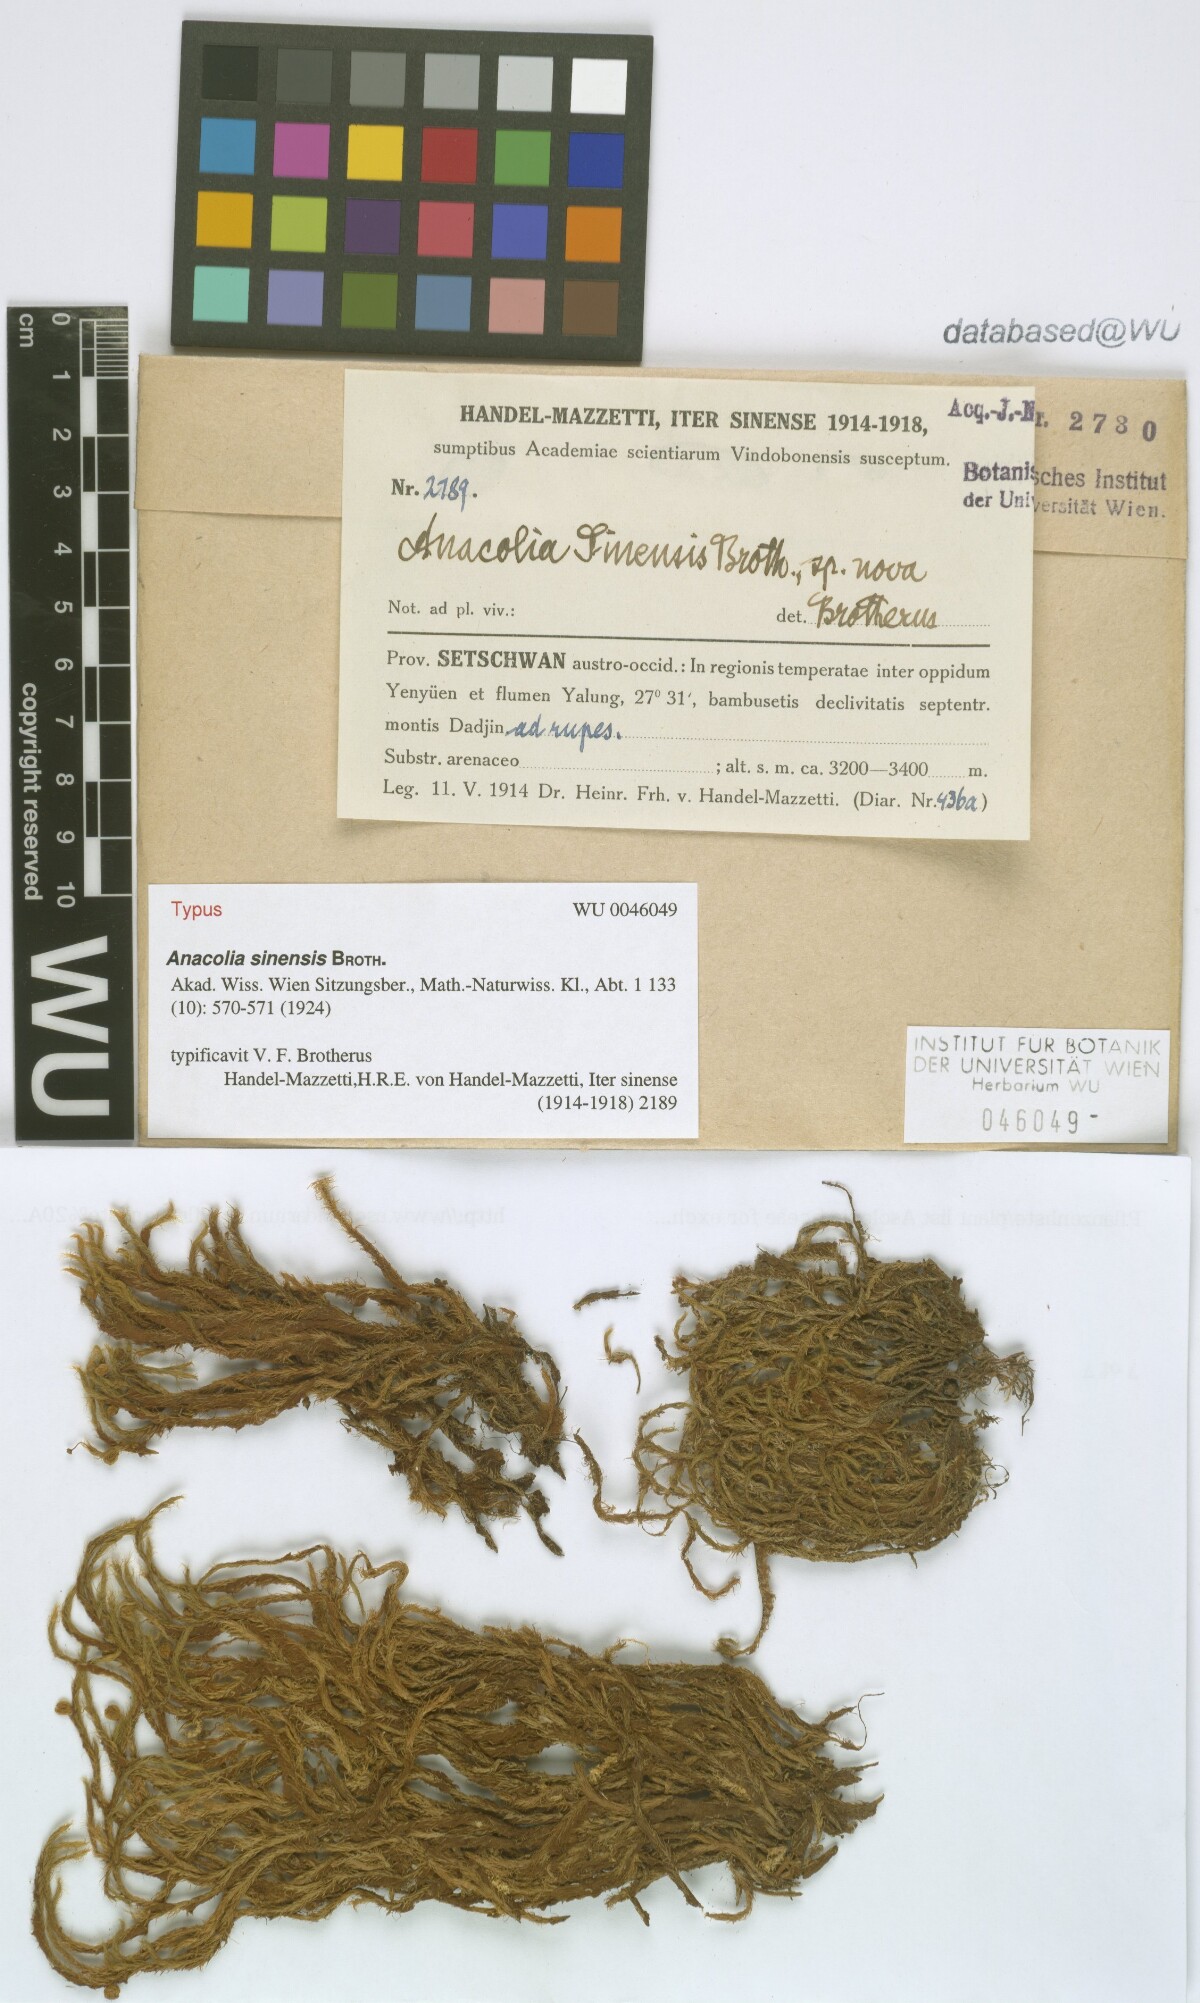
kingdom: Plantae
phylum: Bryophyta
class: Bryopsida
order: Bartramiales
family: Bartramiaceae
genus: Flowersia
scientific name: Flowersia sinensis
